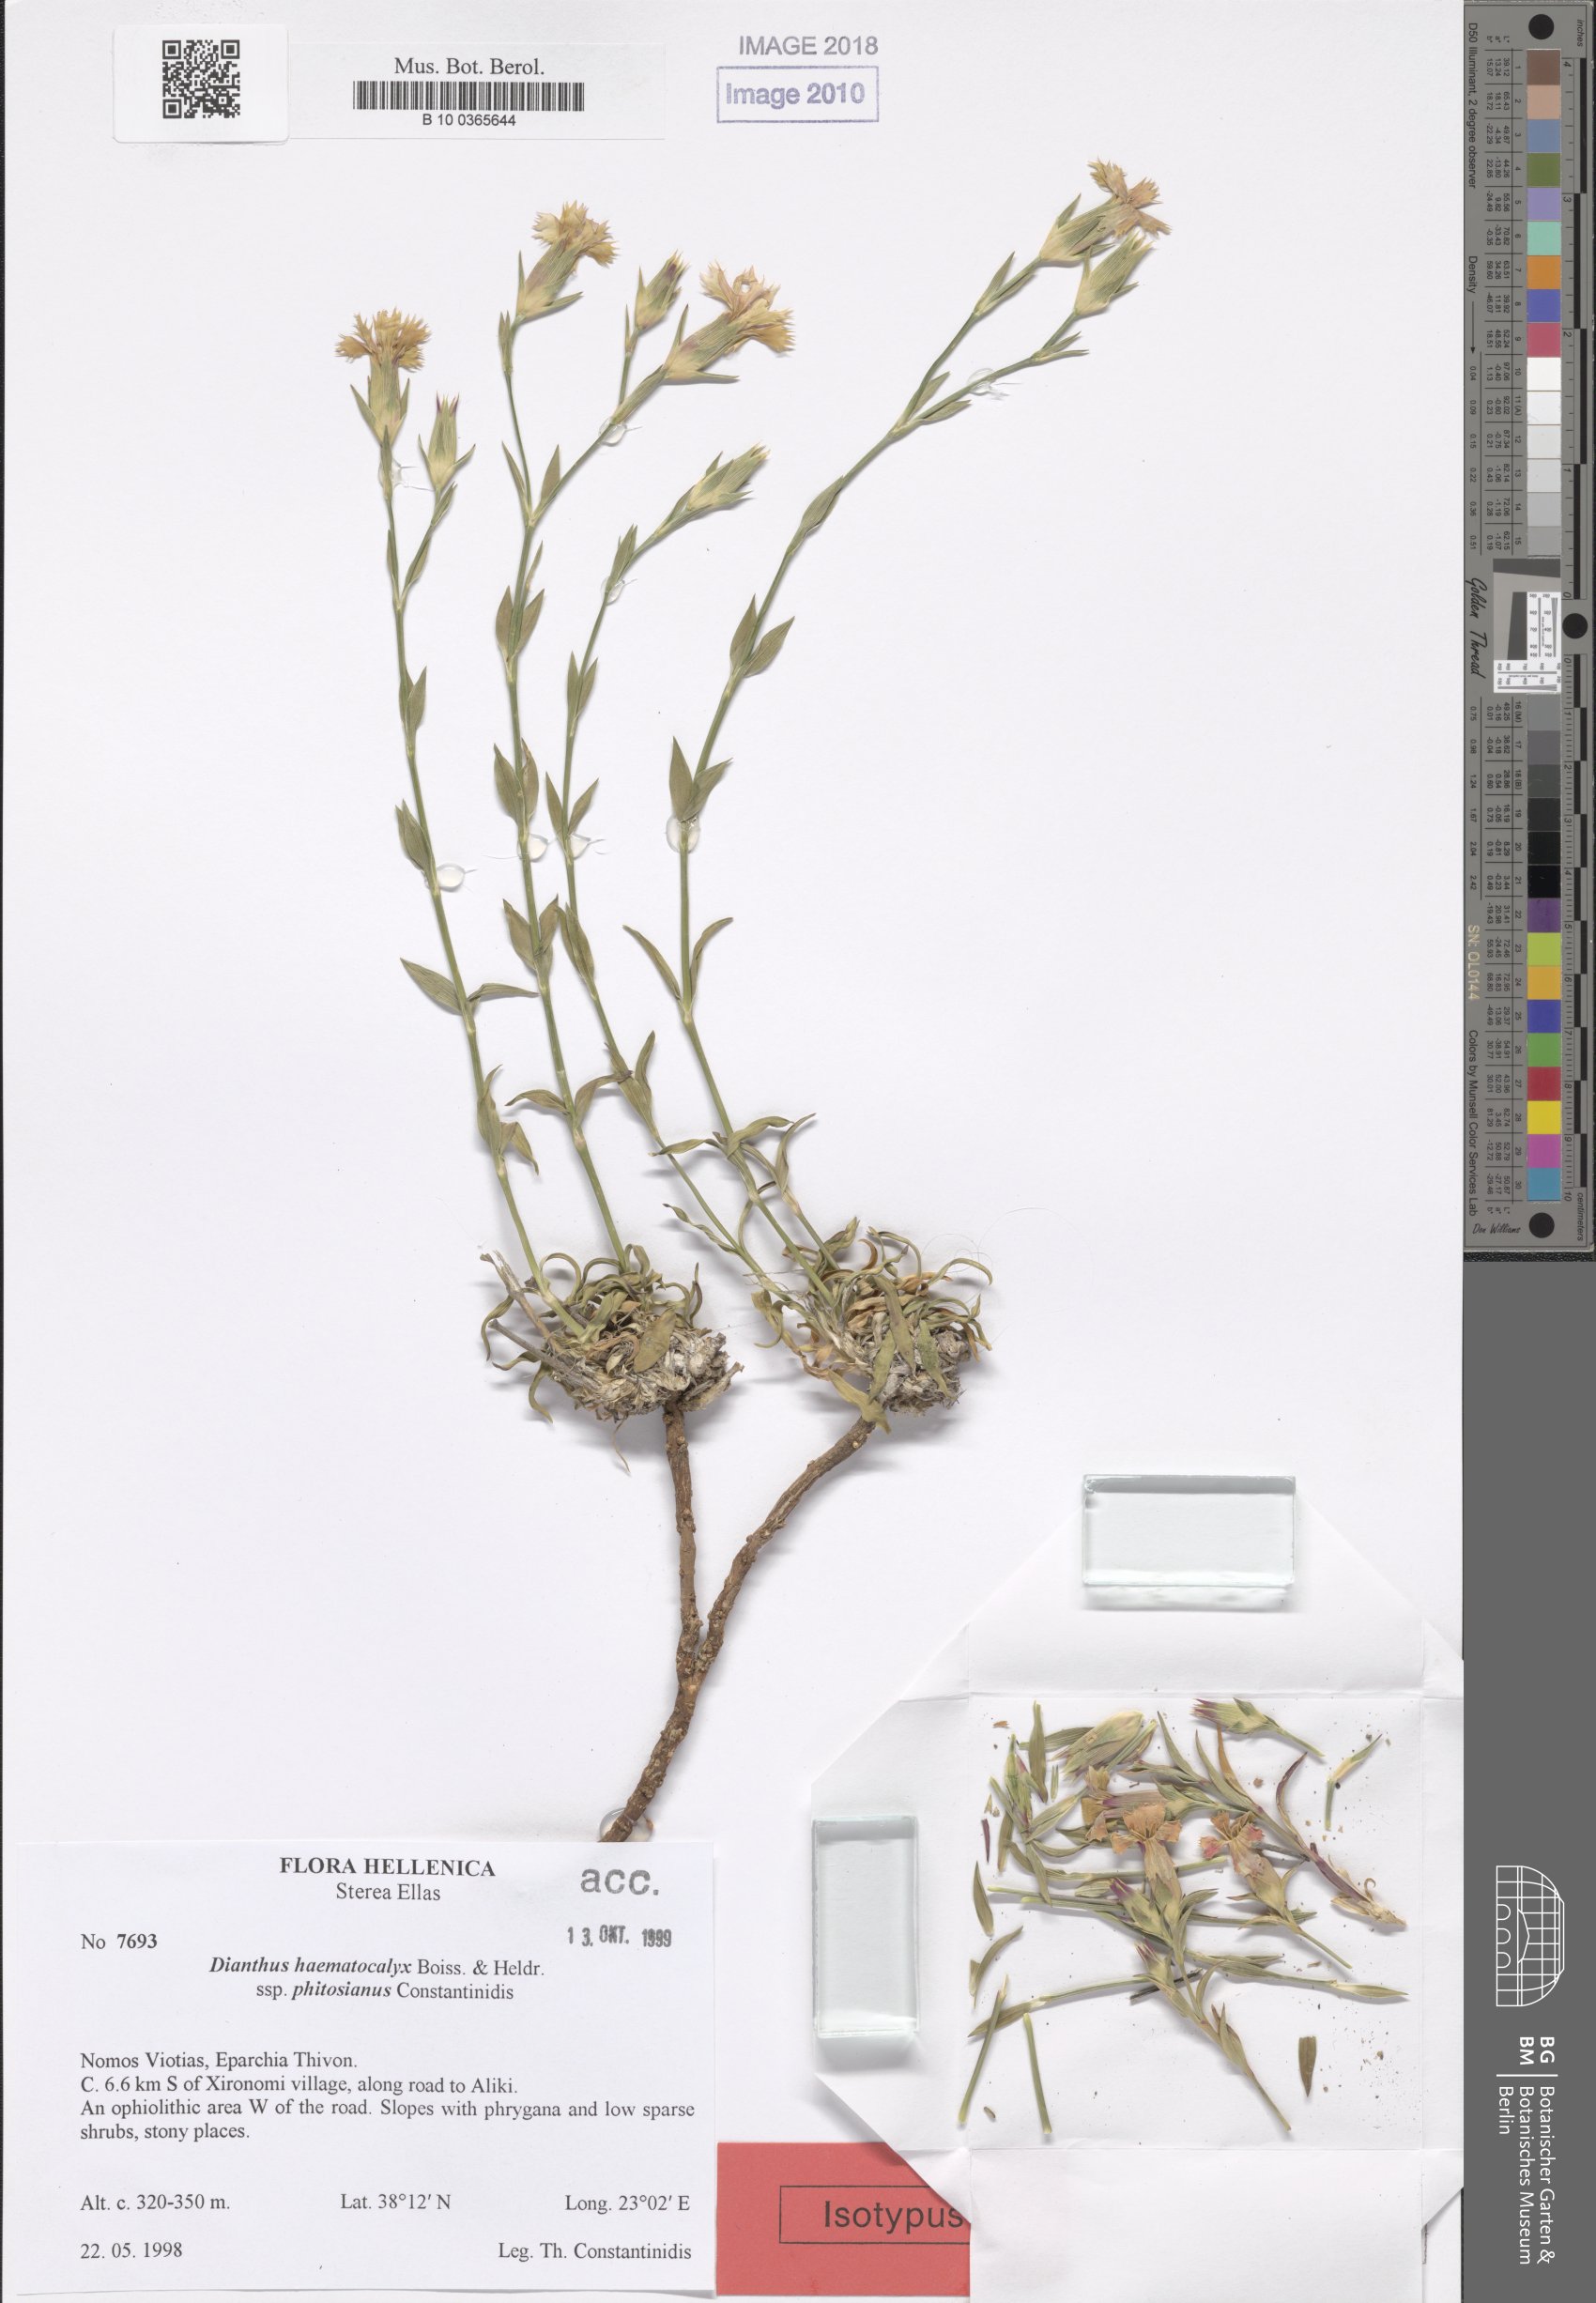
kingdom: Plantae
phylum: Tracheophyta
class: Magnoliopsida
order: Caryophyllales
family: Caryophyllaceae
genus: Dianthus
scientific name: Dianthus haematocalyx
